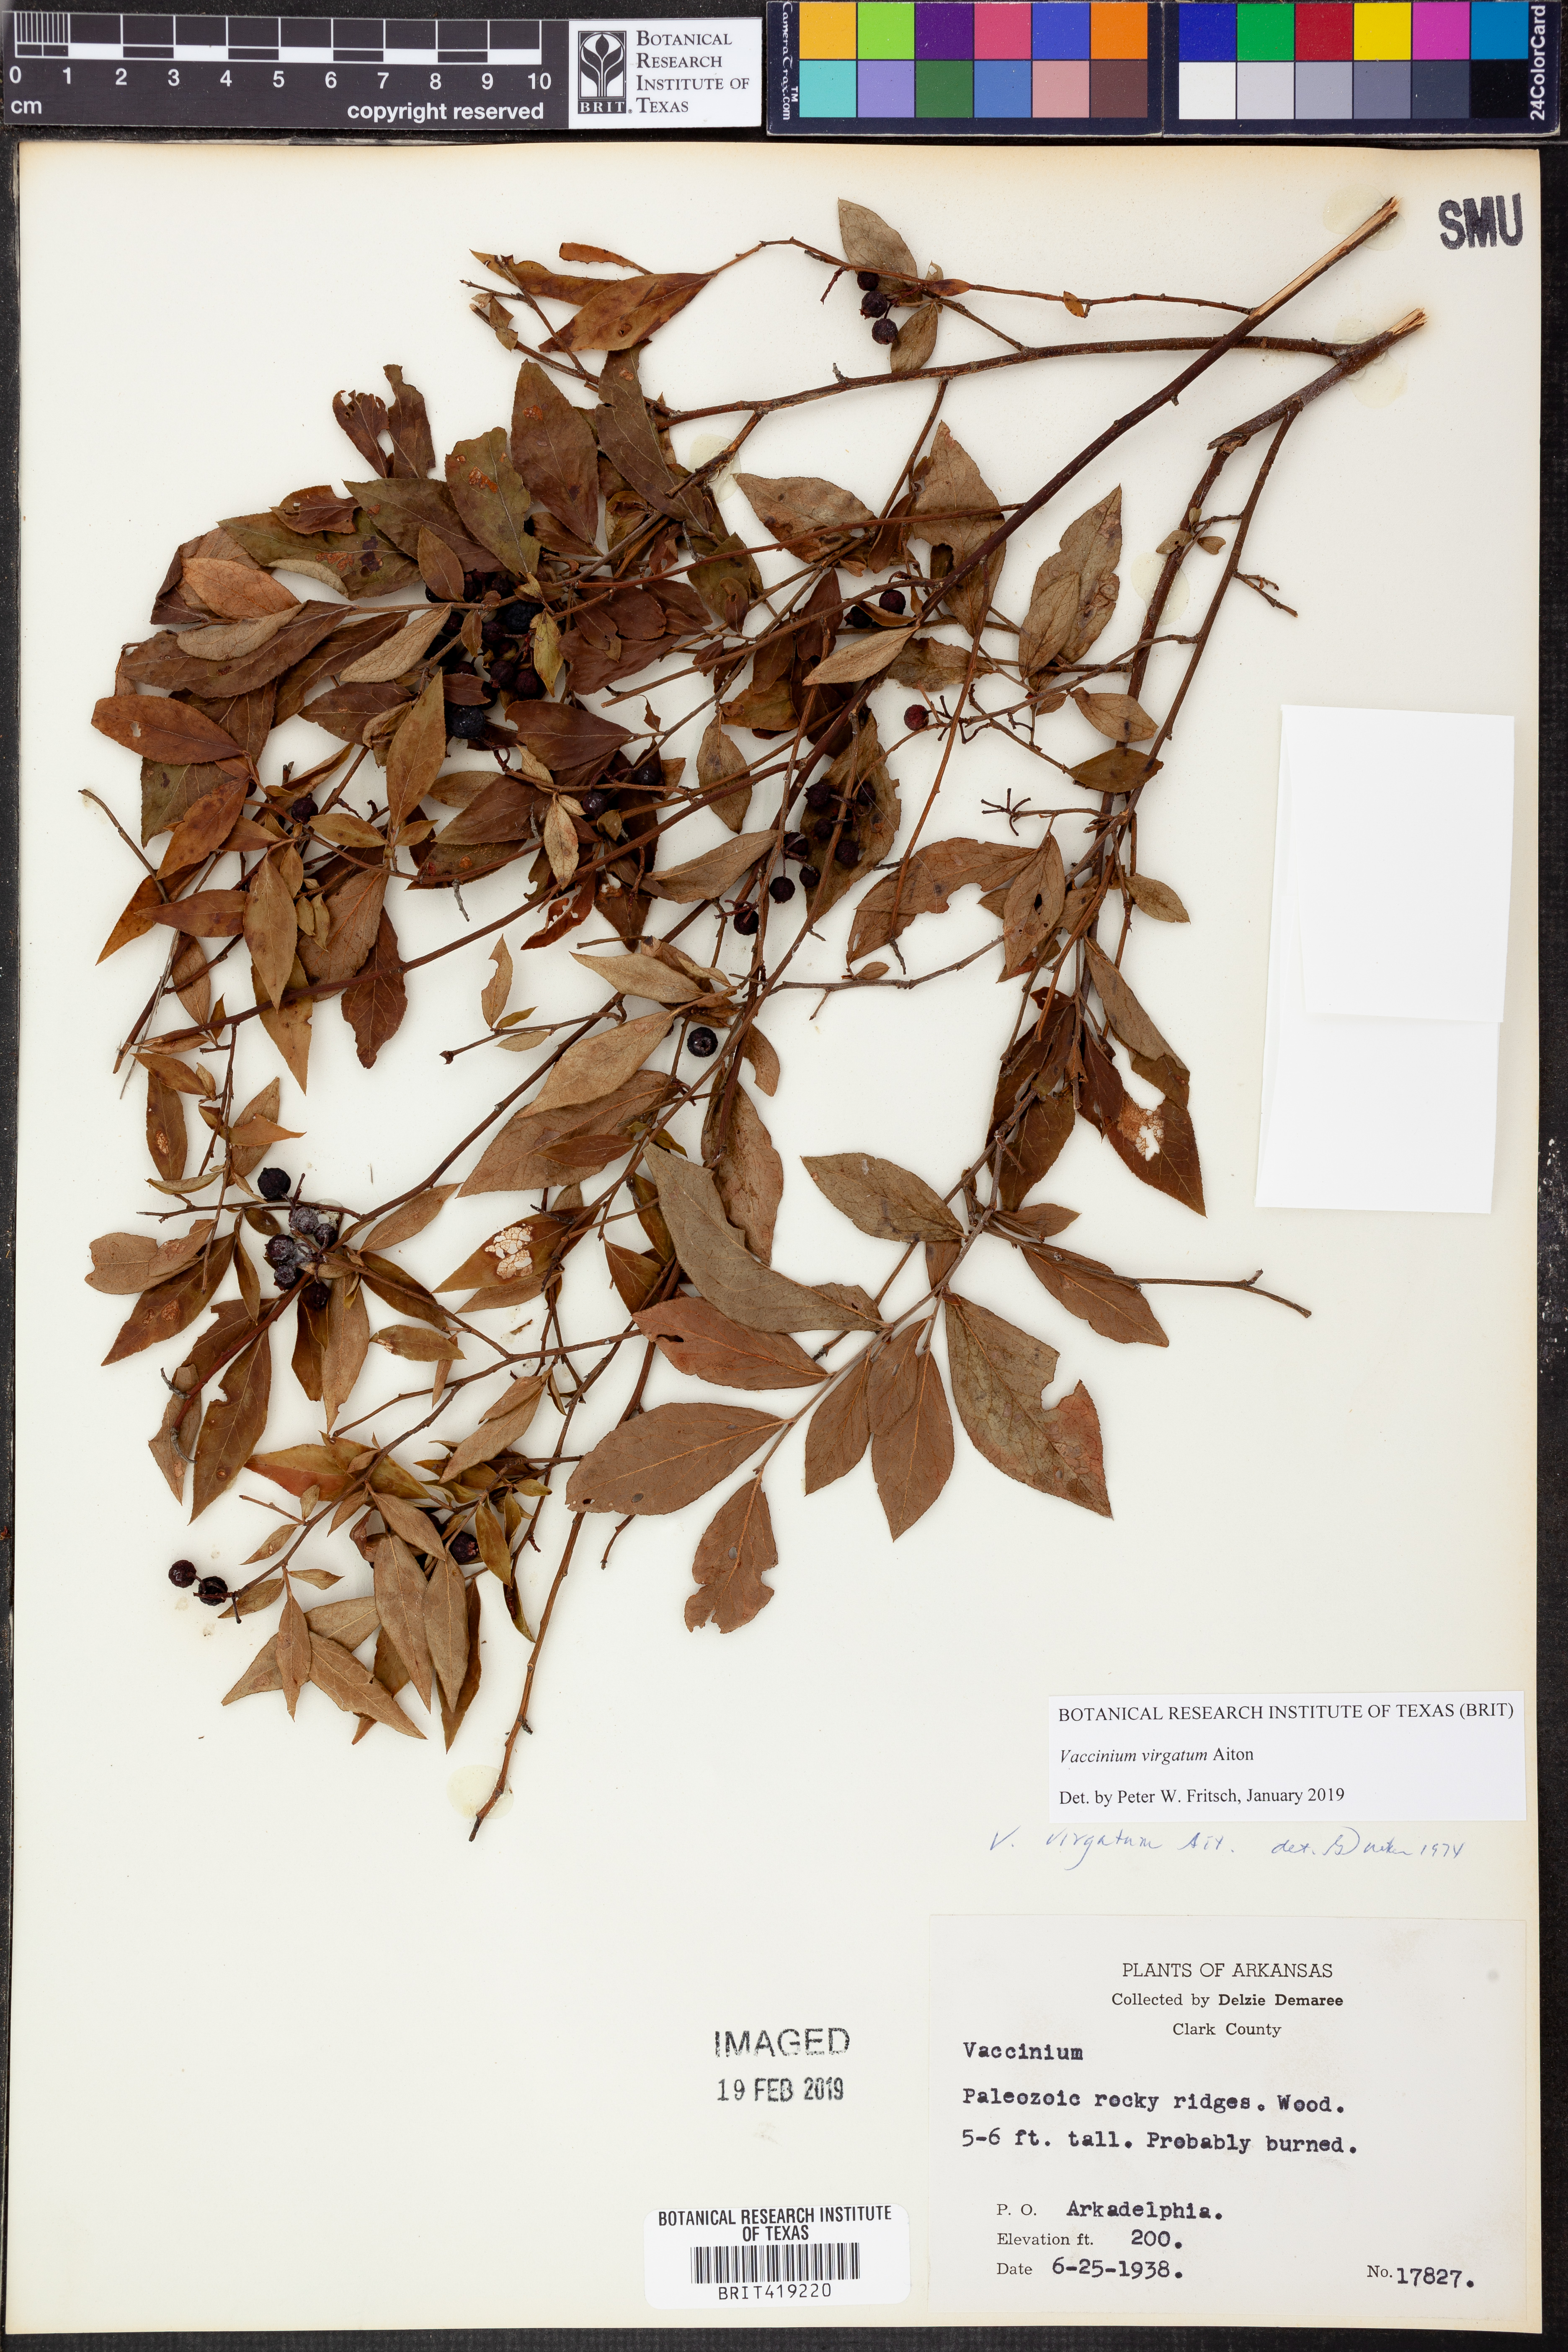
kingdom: Plantae
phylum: Tracheophyta
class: Magnoliopsida
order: Ericales
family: Ericaceae
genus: Vaccinium
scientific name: Vaccinium corymbosum
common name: Blueberry
